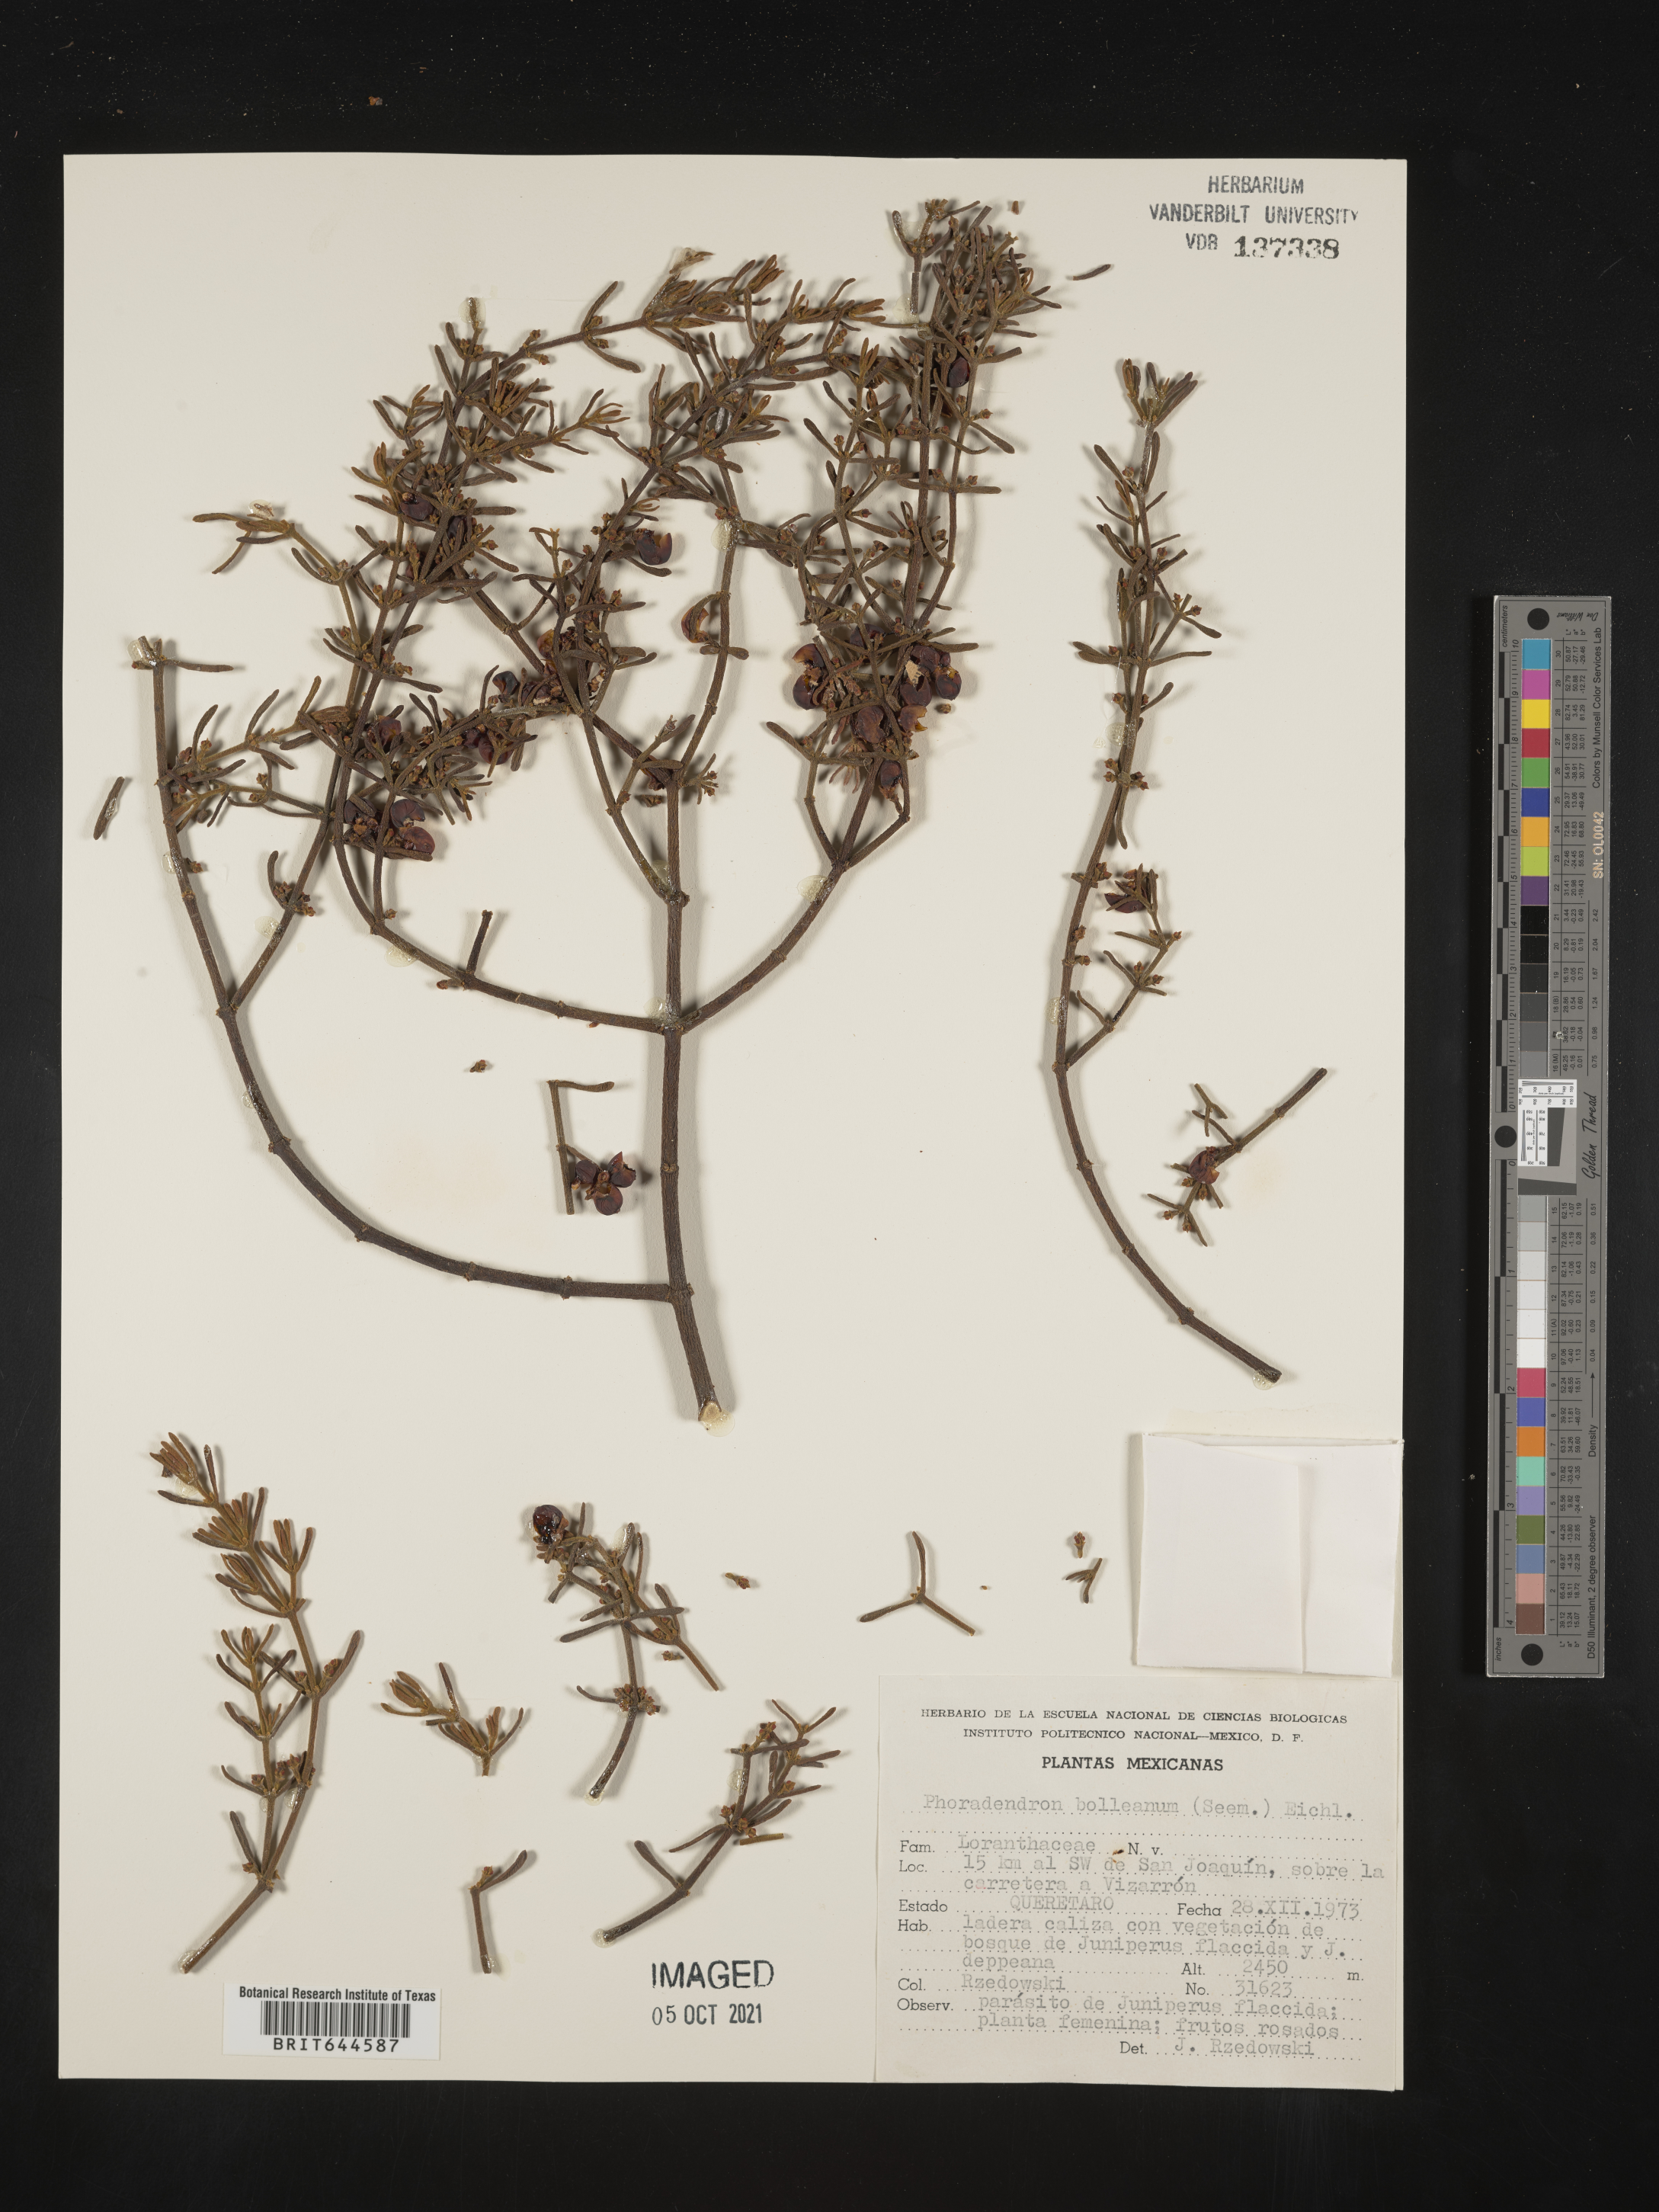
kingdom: Plantae
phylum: Tracheophyta
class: Magnoliopsida
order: Santalales
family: Viscaceae
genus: Phoradendron
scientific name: Phoradendron
